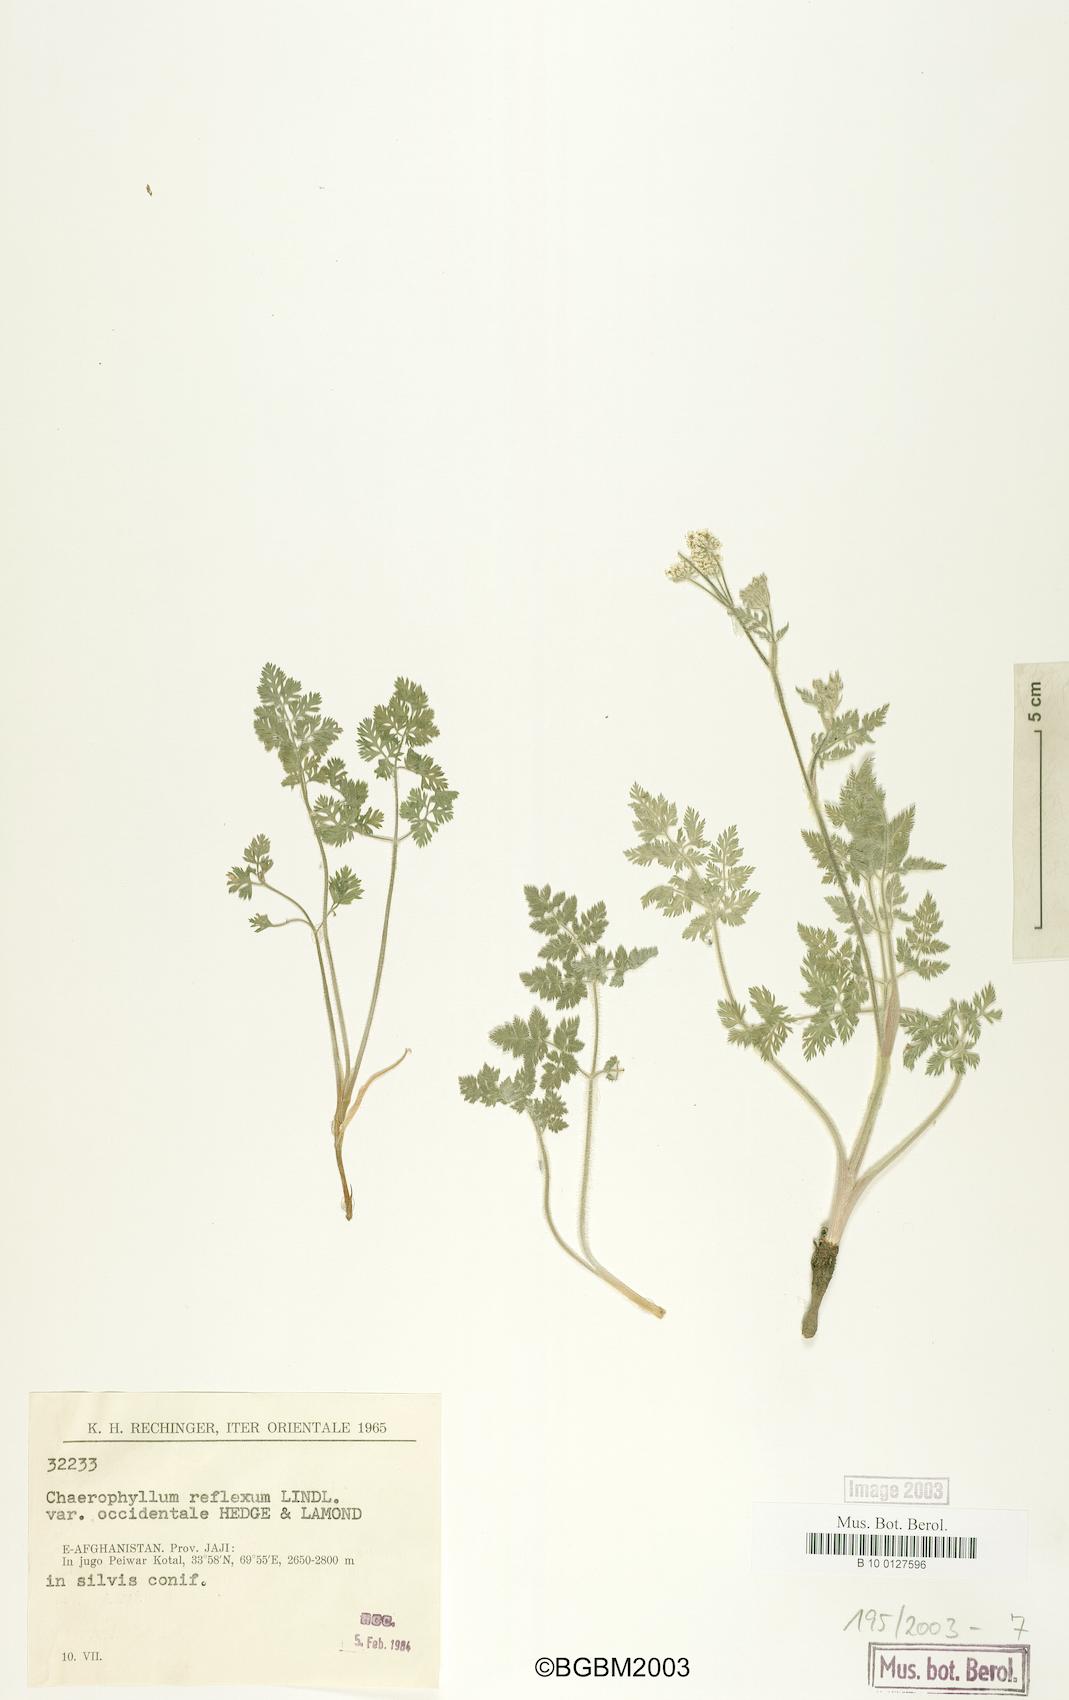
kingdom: Plantae
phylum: Tracheophyta
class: Magnoliopsida
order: Apiales
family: Apiaceae
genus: Chaerophyllum
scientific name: Chaerophyllum reflexum
